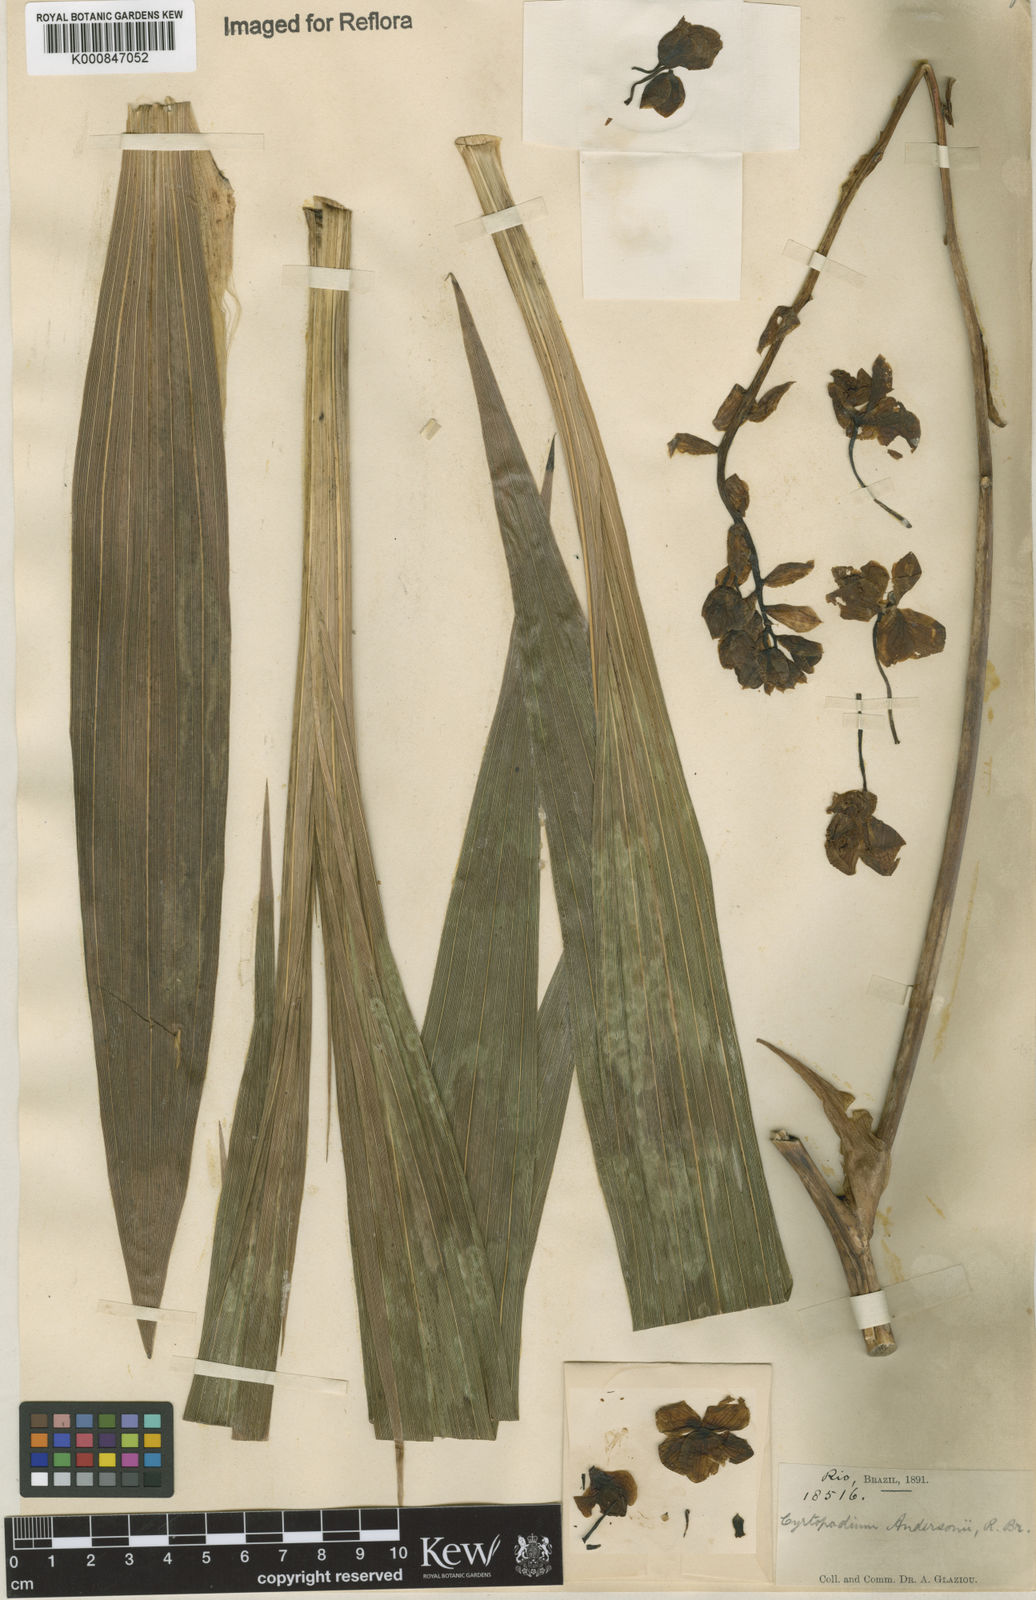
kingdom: Plantae
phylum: Tracheophyta
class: Liliopsida
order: Asparagales
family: Orchidaceae
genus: Cyrtopodium
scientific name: Cyrtopodium andersonii
